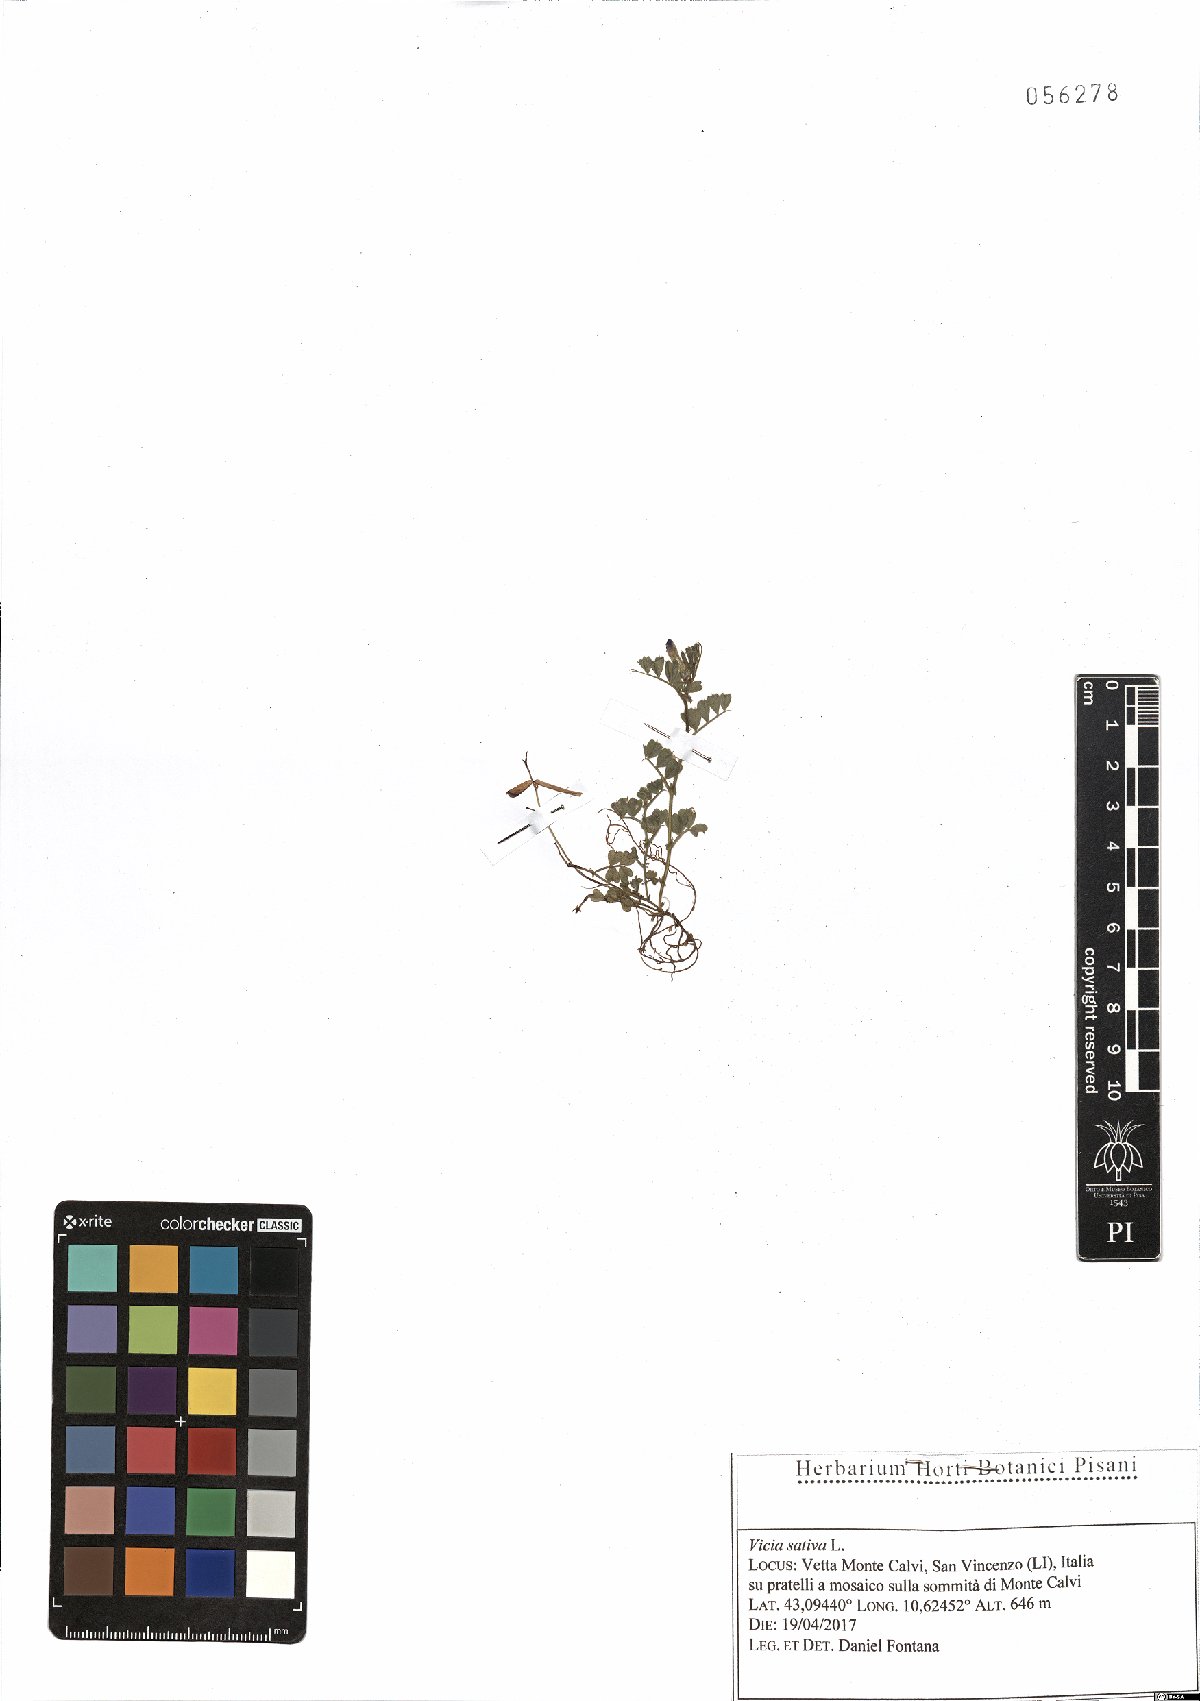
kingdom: Plantae
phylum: Tracheophyta
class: Magnoliopsida
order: Fabales
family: Fabaceae
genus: Vicia
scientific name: Vicia sativa
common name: Garden vetch
